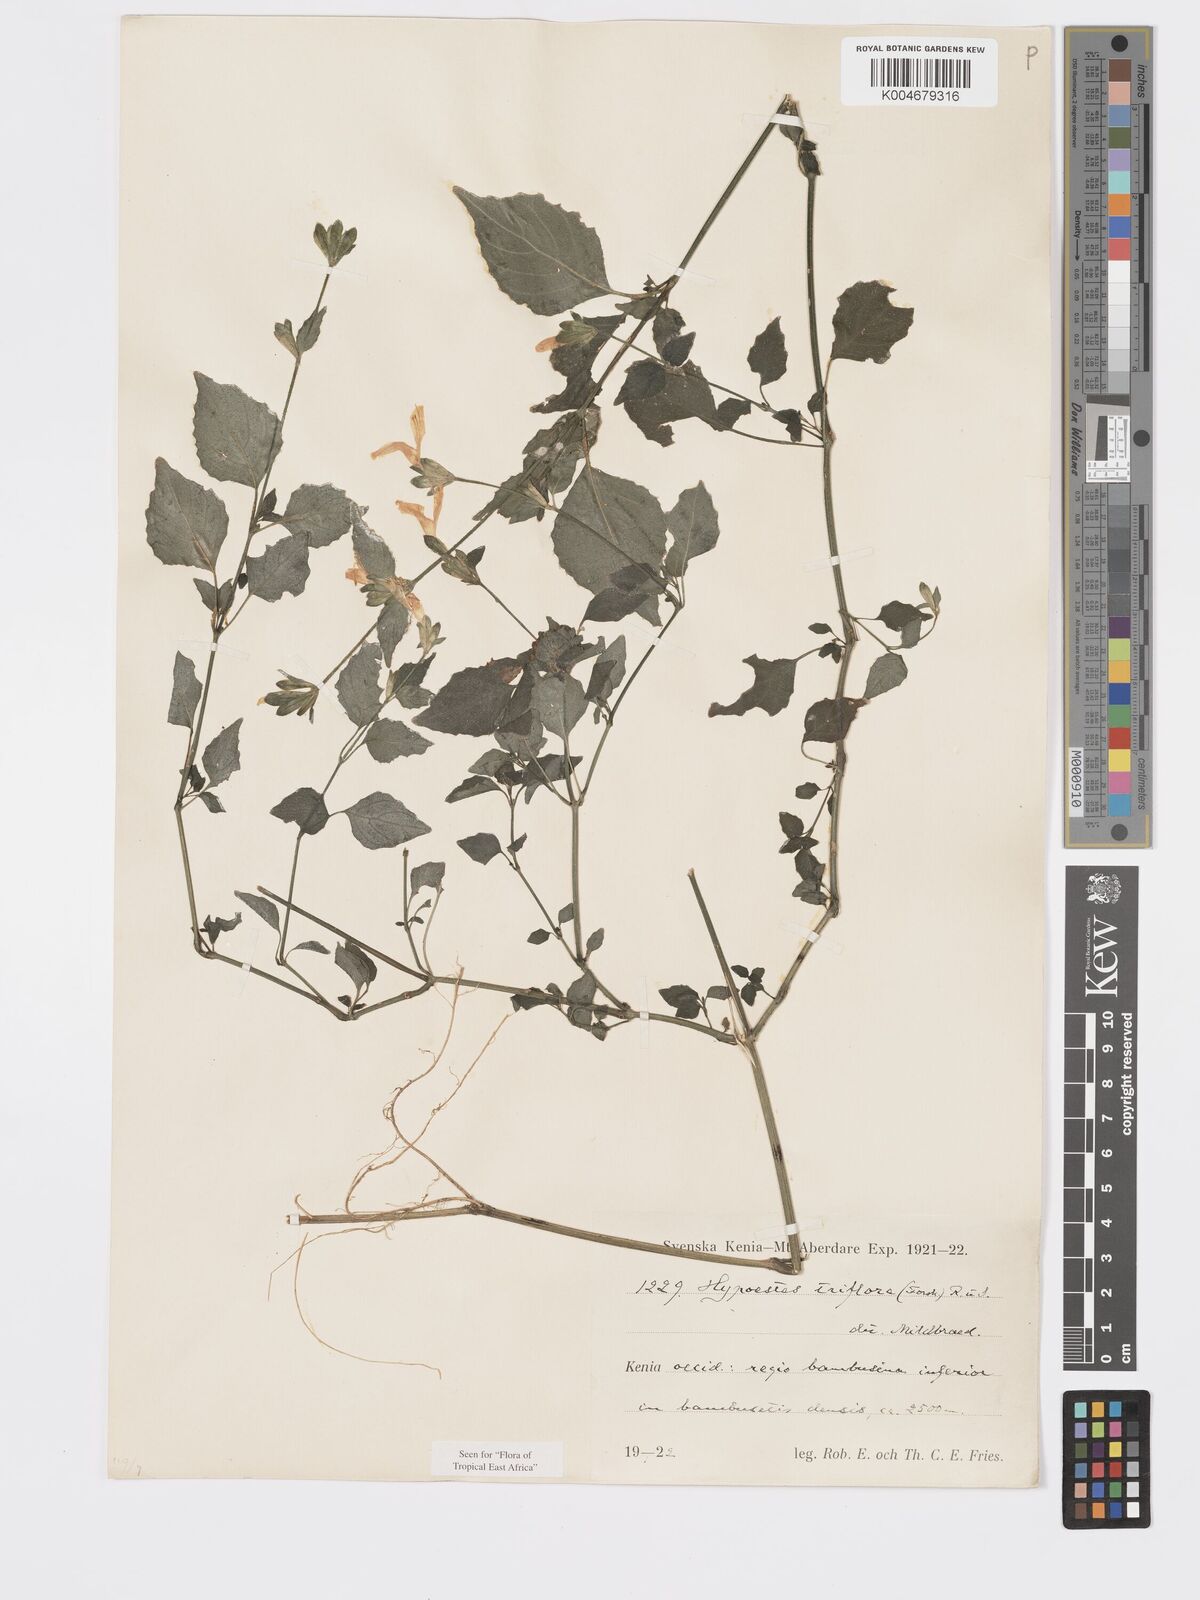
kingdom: Plantae
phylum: Tracheophyta
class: Magnoliopsida
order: Lamiales
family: Acanthaceae
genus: Hypoestes
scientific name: Hypoestes triflora
